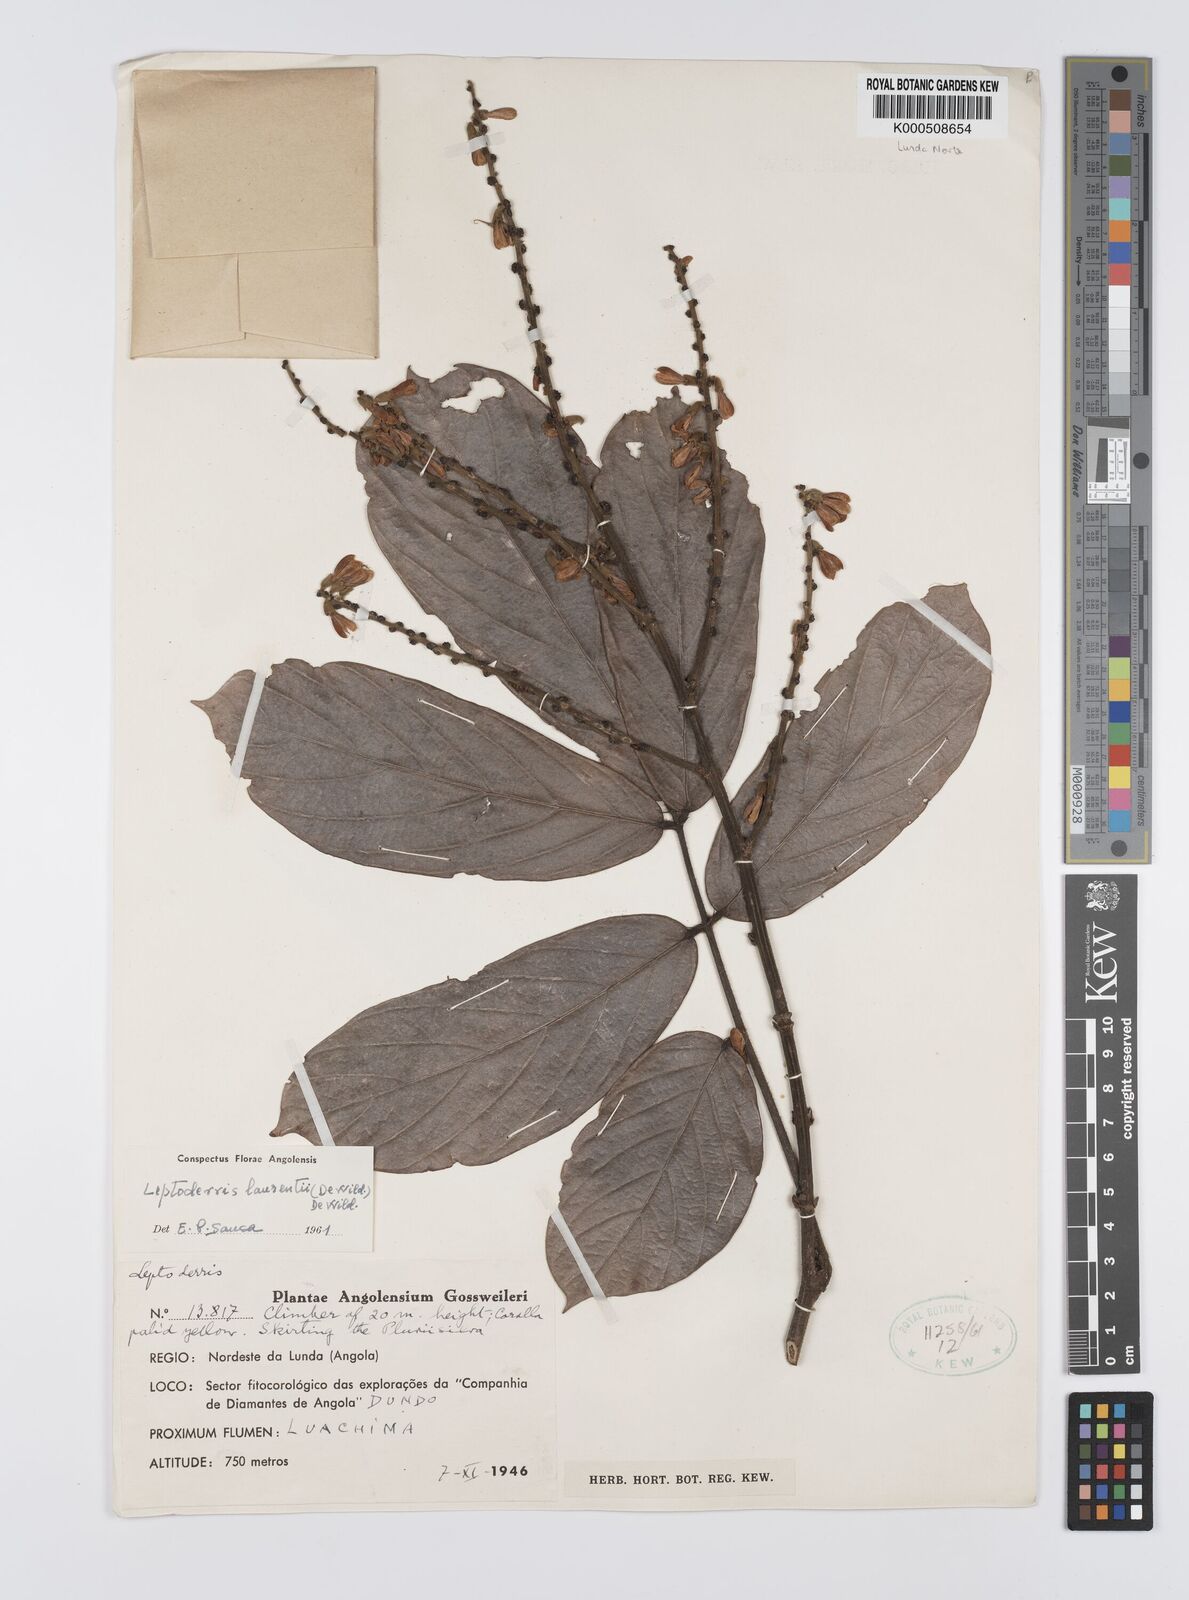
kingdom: Plantae
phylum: Tracheophyta
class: Magnoliopsida
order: Fabales
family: Fabaceae
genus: Leptoderris
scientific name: Leptoderris brachyptera
